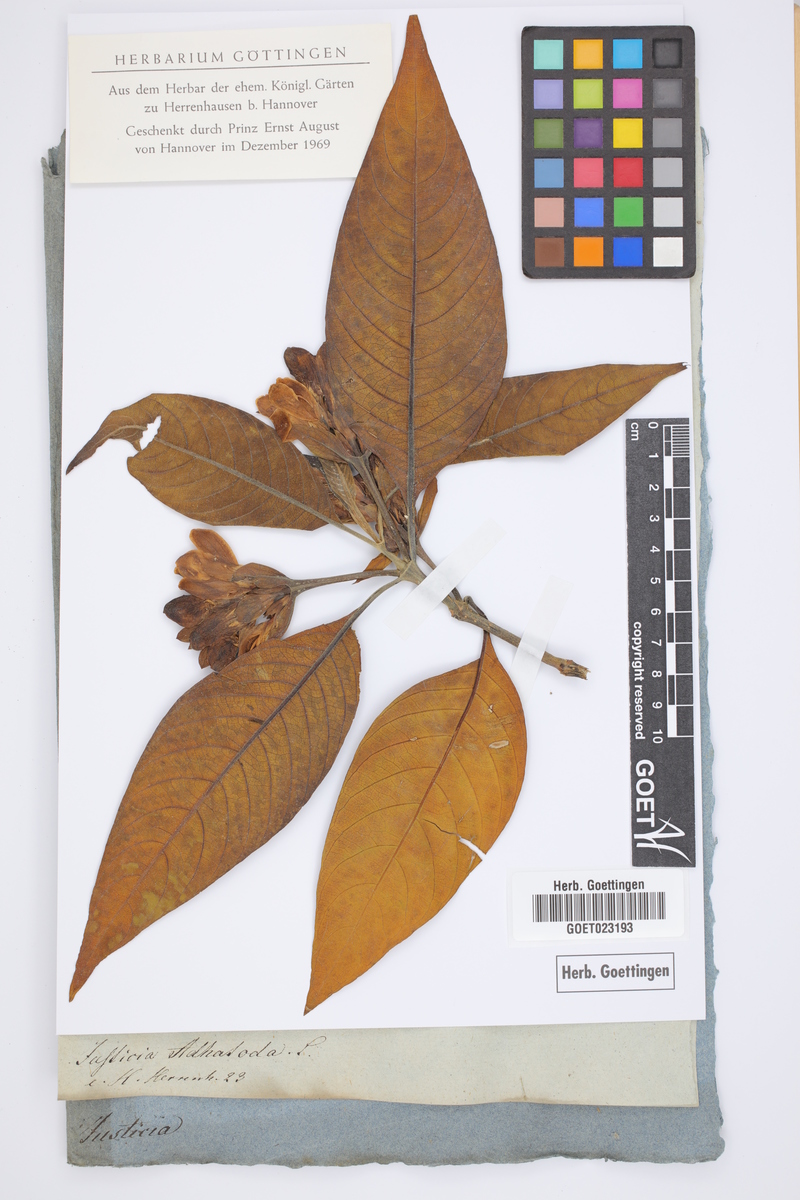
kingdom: Plantae
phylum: Tracheophyta
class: Magnoliopsida
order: Lamiales
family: Acanthaceae
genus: Justicia
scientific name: Justicia adhatoda
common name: Malabar nut
